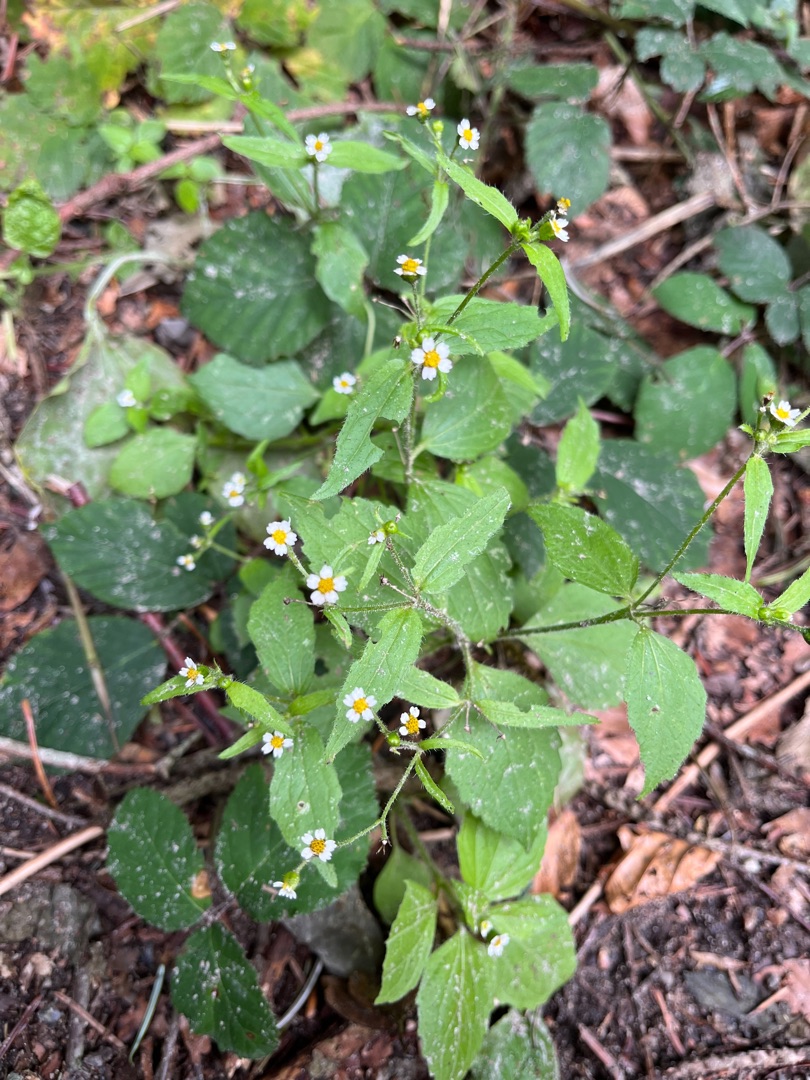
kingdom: Plantae
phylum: Tracheophyta
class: Magnoliopsida
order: Asterales
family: Asteraceae
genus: Galinsoga
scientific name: Galinsoga quadriradiata
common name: Kirtel-kortstråle
